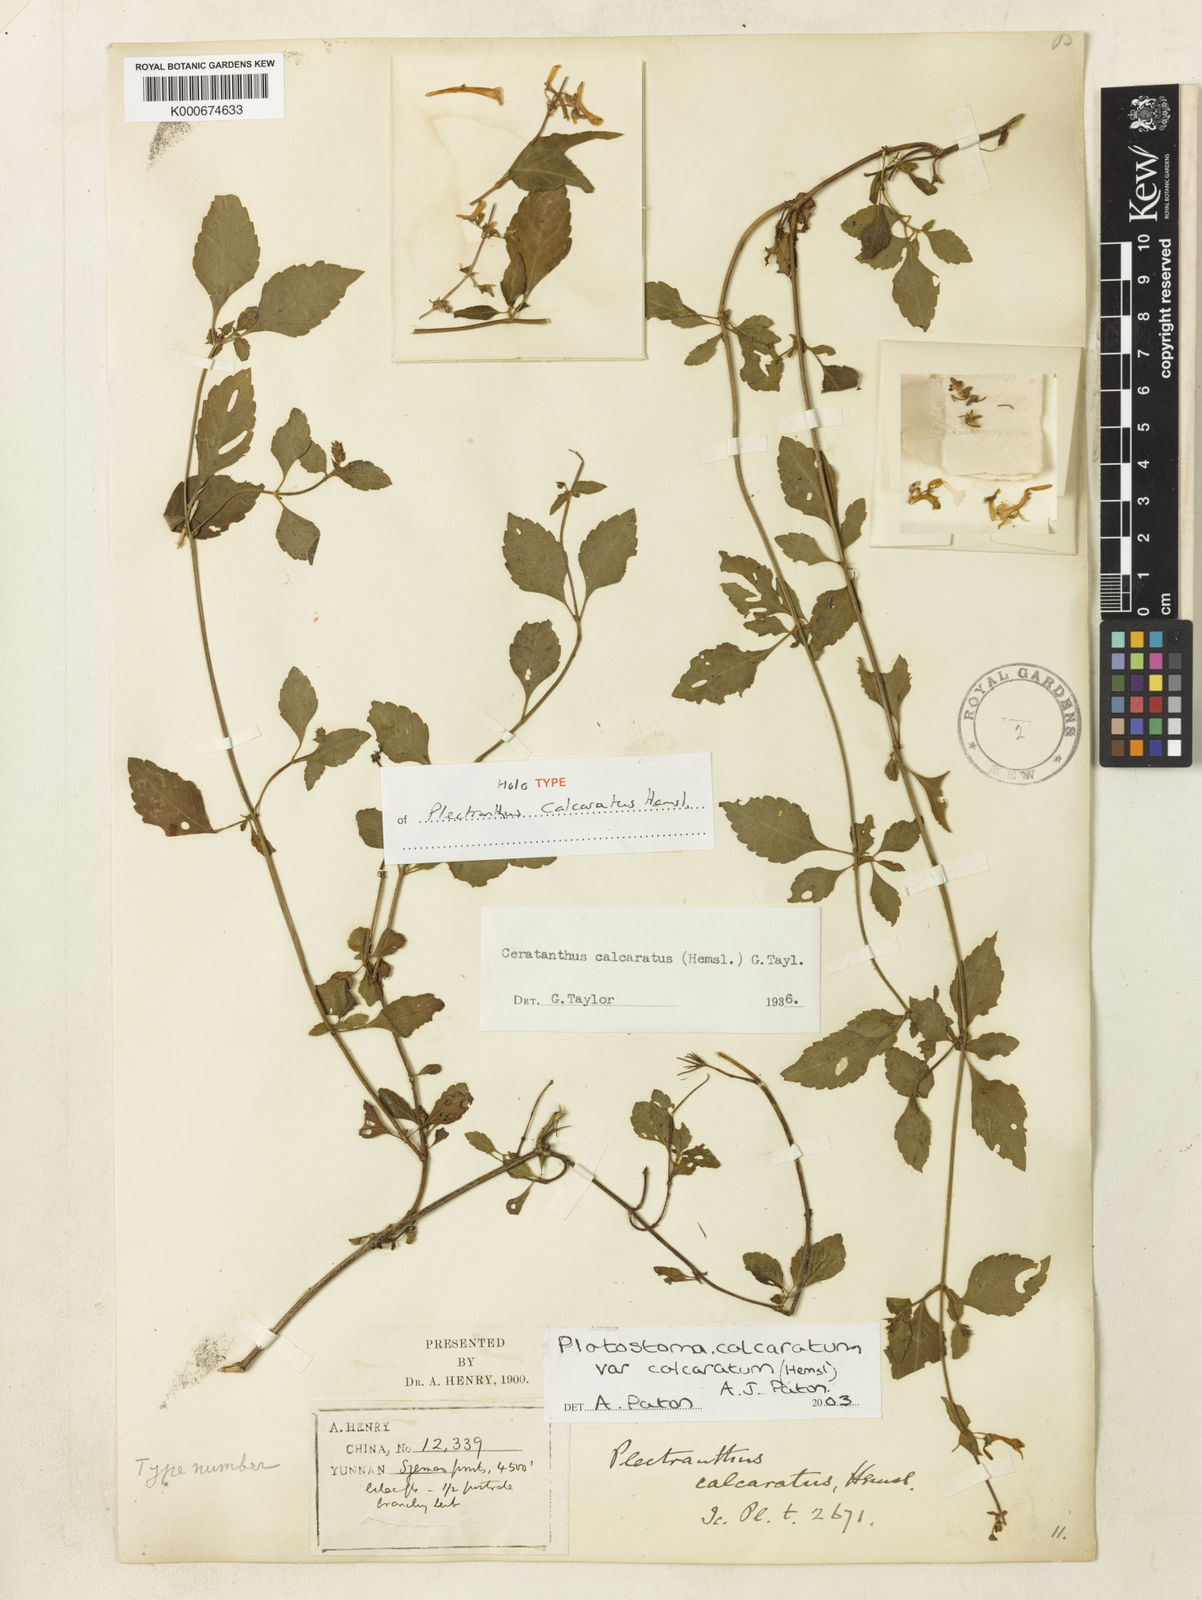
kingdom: Plantae
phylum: Tracheophyta
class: Magnoliopsida
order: Lamiales
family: Lamiaceae
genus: Platostoma
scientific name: Platostoma calcaratum
